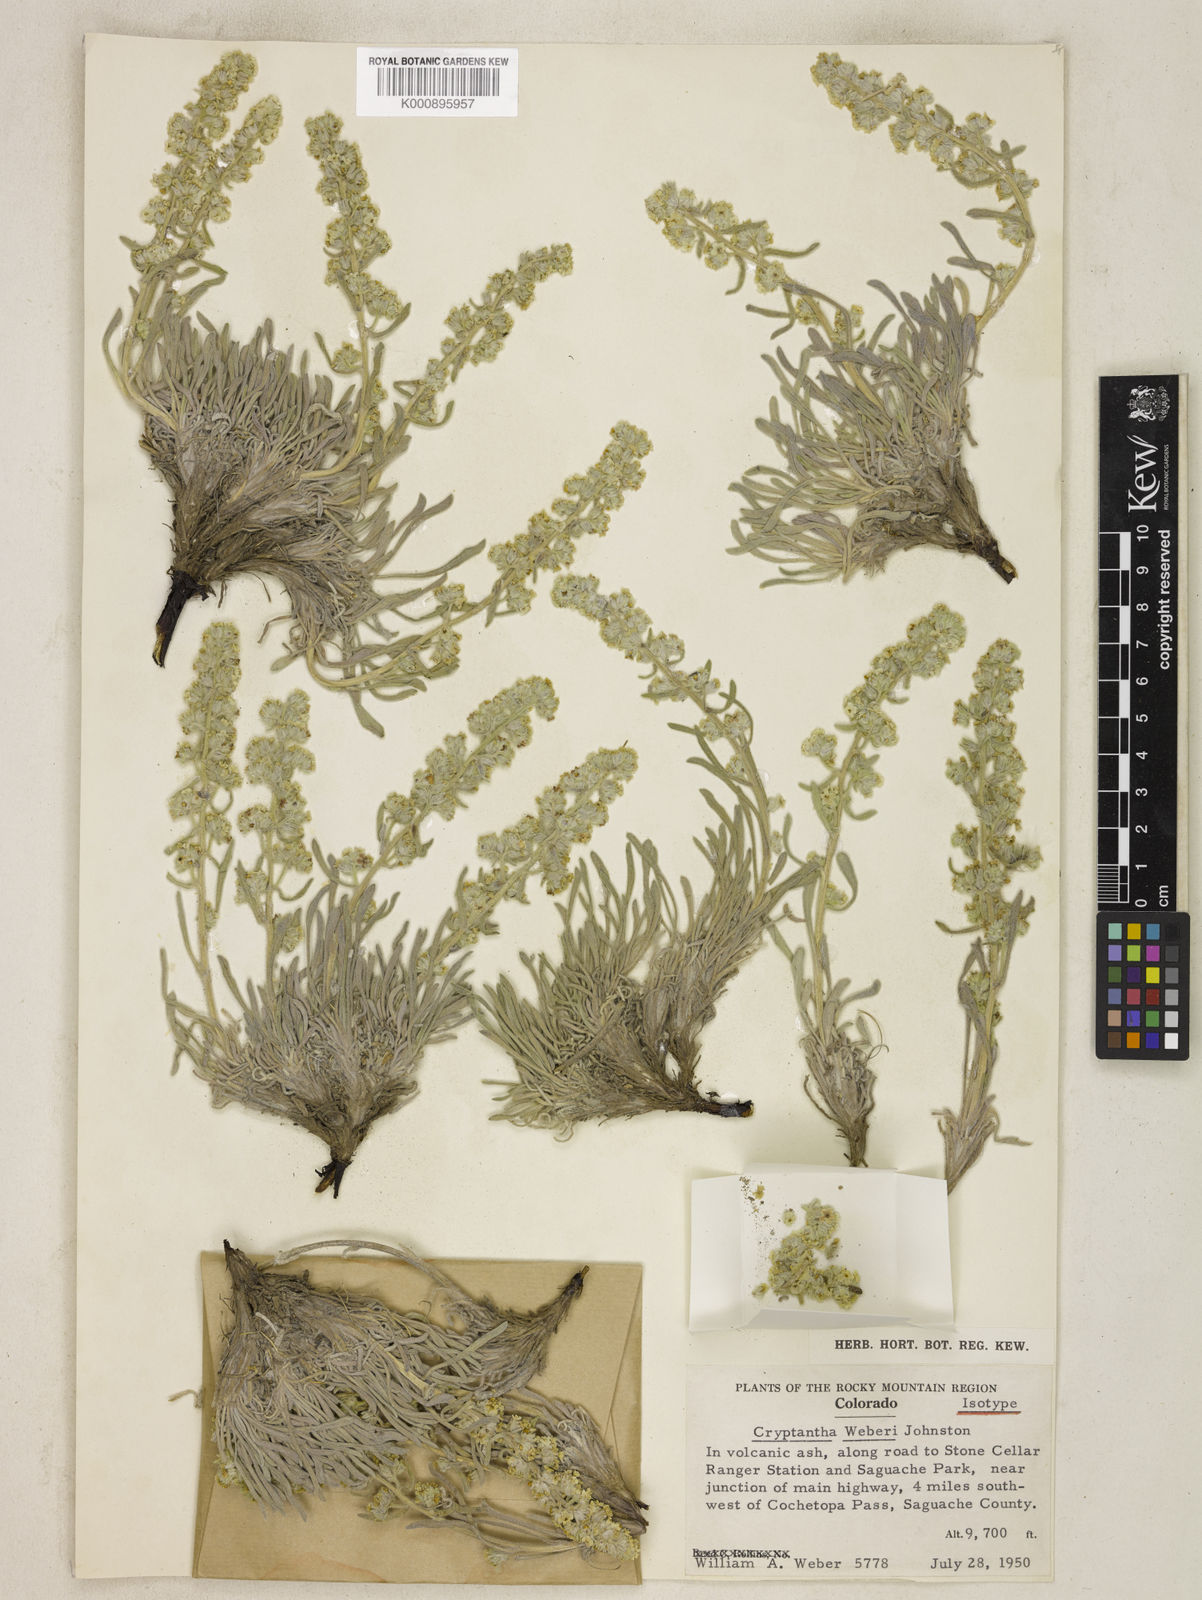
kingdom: Plantae
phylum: Tracheophyta
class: Magnoliopsida
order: Boraginales
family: Boraginaceae
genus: Oreocarya
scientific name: Oreocarya weberi
